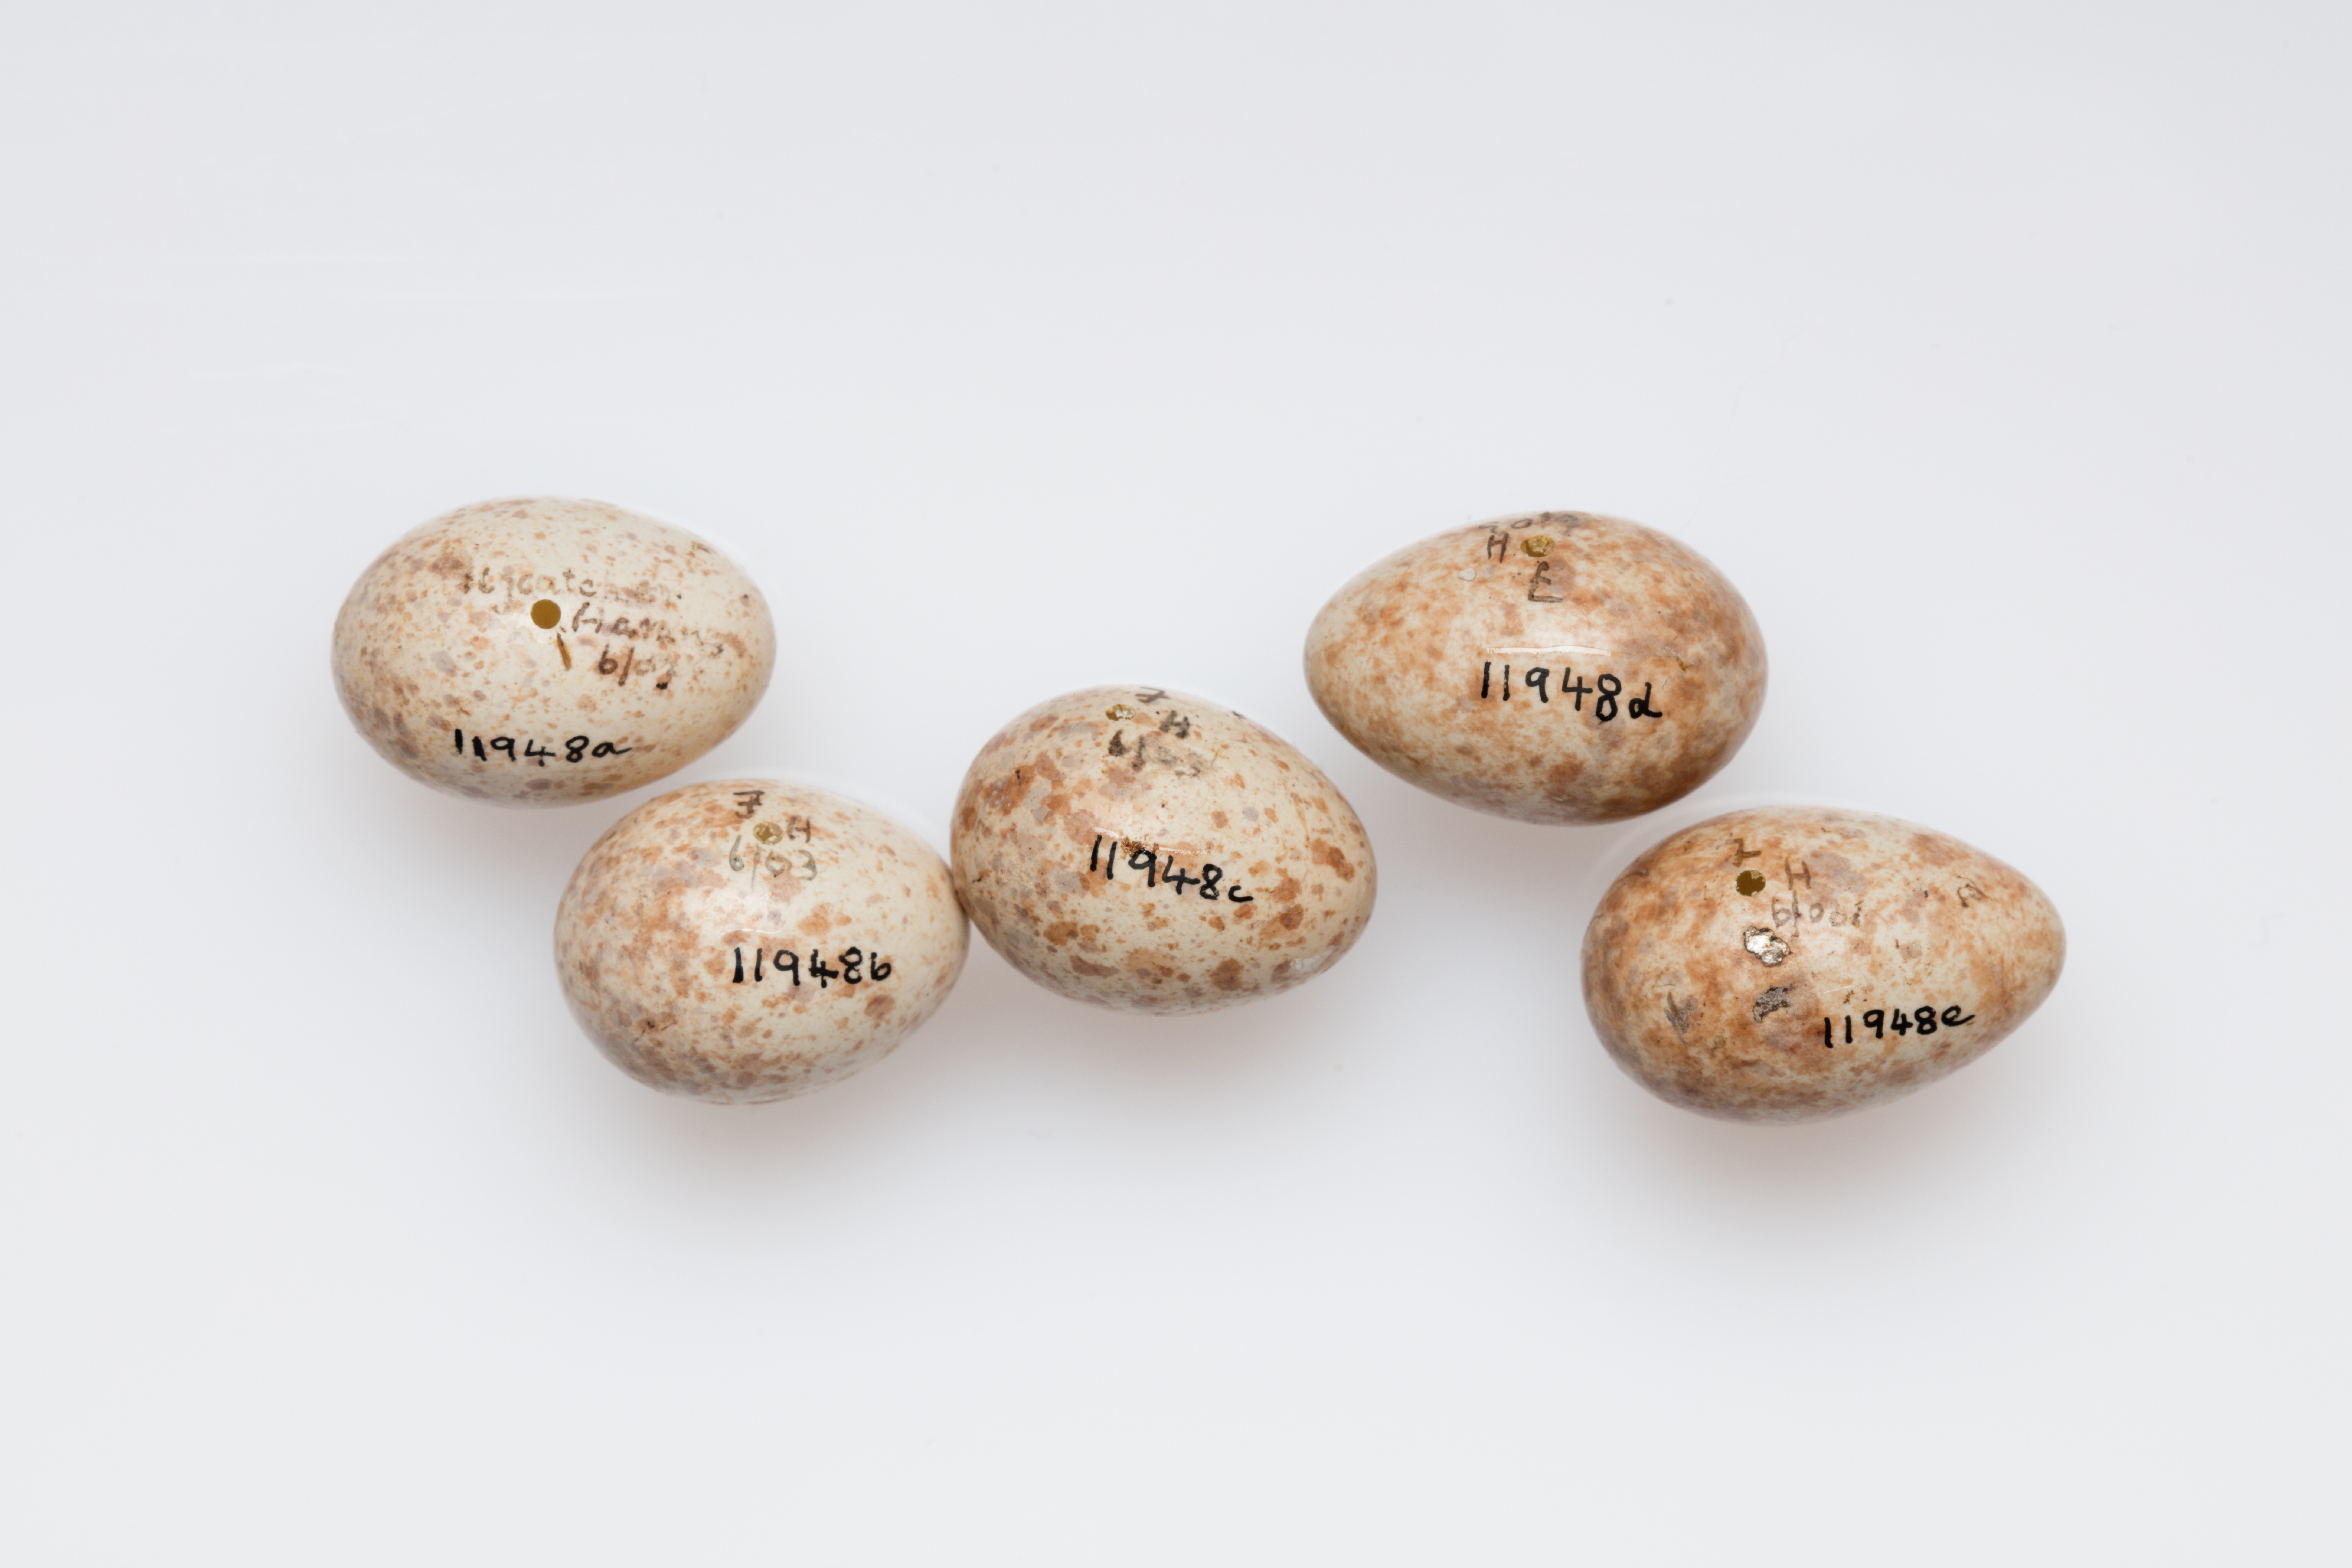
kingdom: Animalia
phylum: Chordata
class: Aves
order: Passeriformes
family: Muscicapidae
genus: Muscicapa
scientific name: Muscicapa striata
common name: Spotted flycatcher
